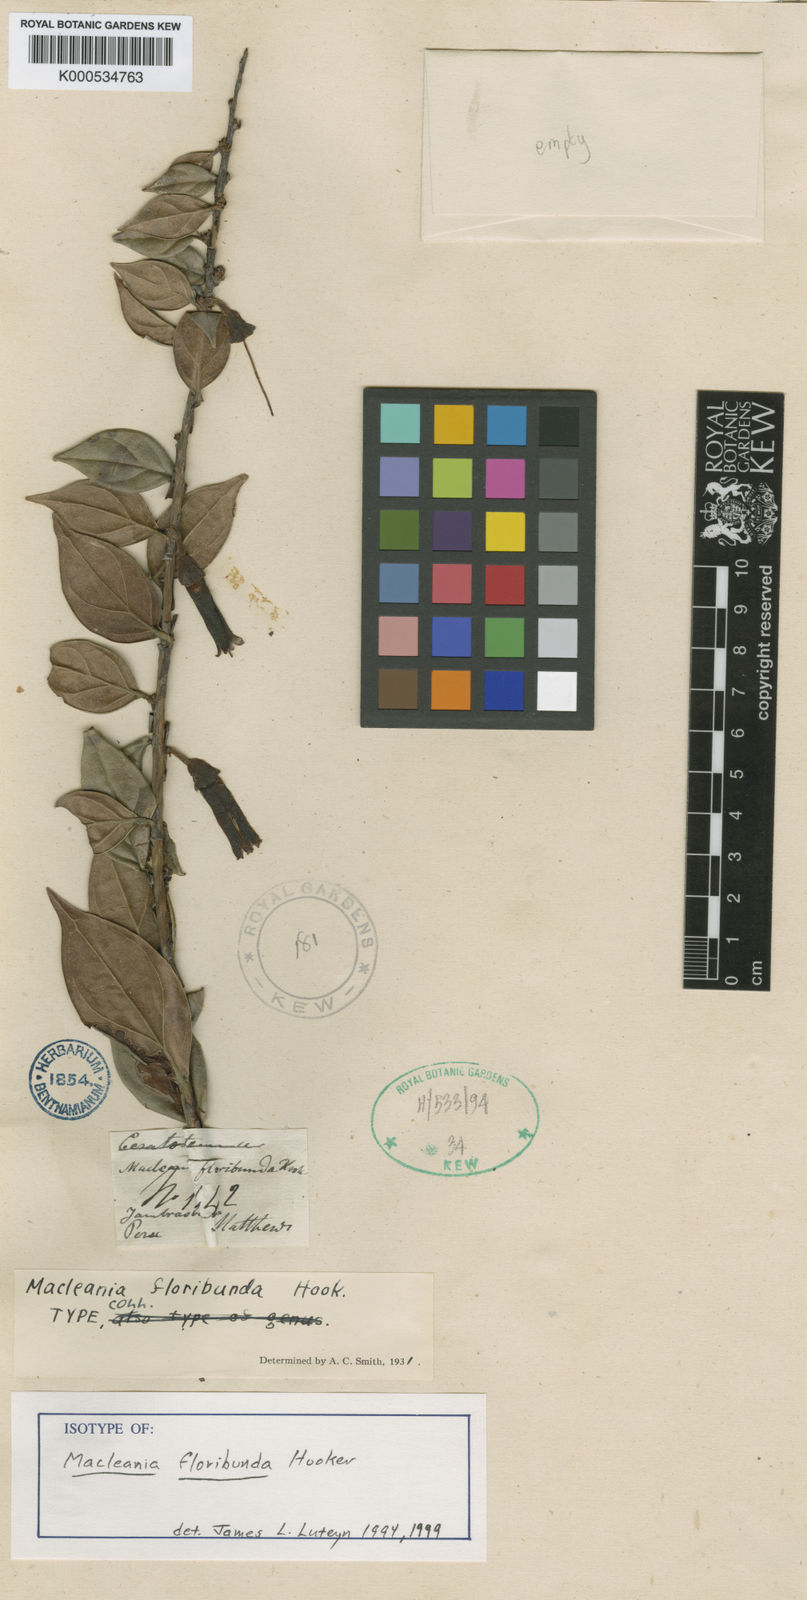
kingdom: Plantae
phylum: Tracheophyta
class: Magnoliopsida
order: Ericales
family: Ericaceae
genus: Macleania
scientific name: Macleania floribunda
